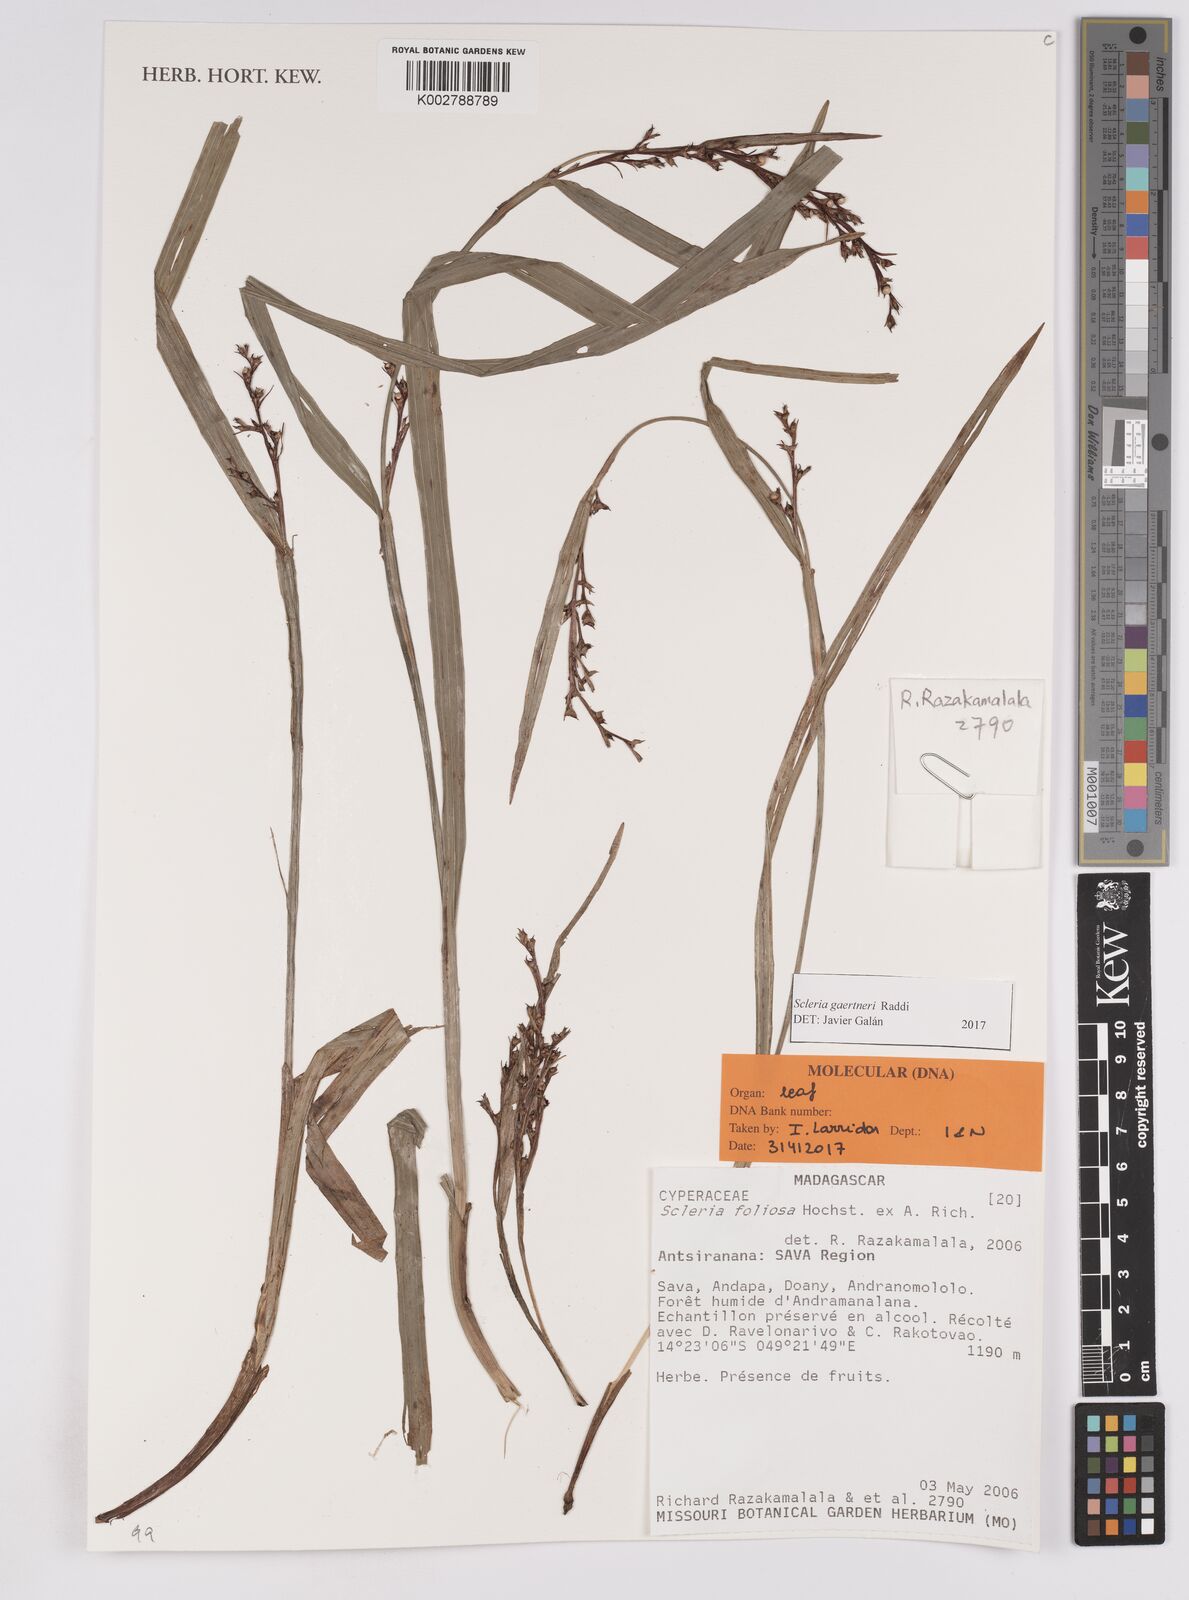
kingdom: Plantae
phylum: Tracheophyta
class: Liliopsida
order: Poales
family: Cyperaceae
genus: Scleria
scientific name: Scleria gaertneri
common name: Cortadera blanca
